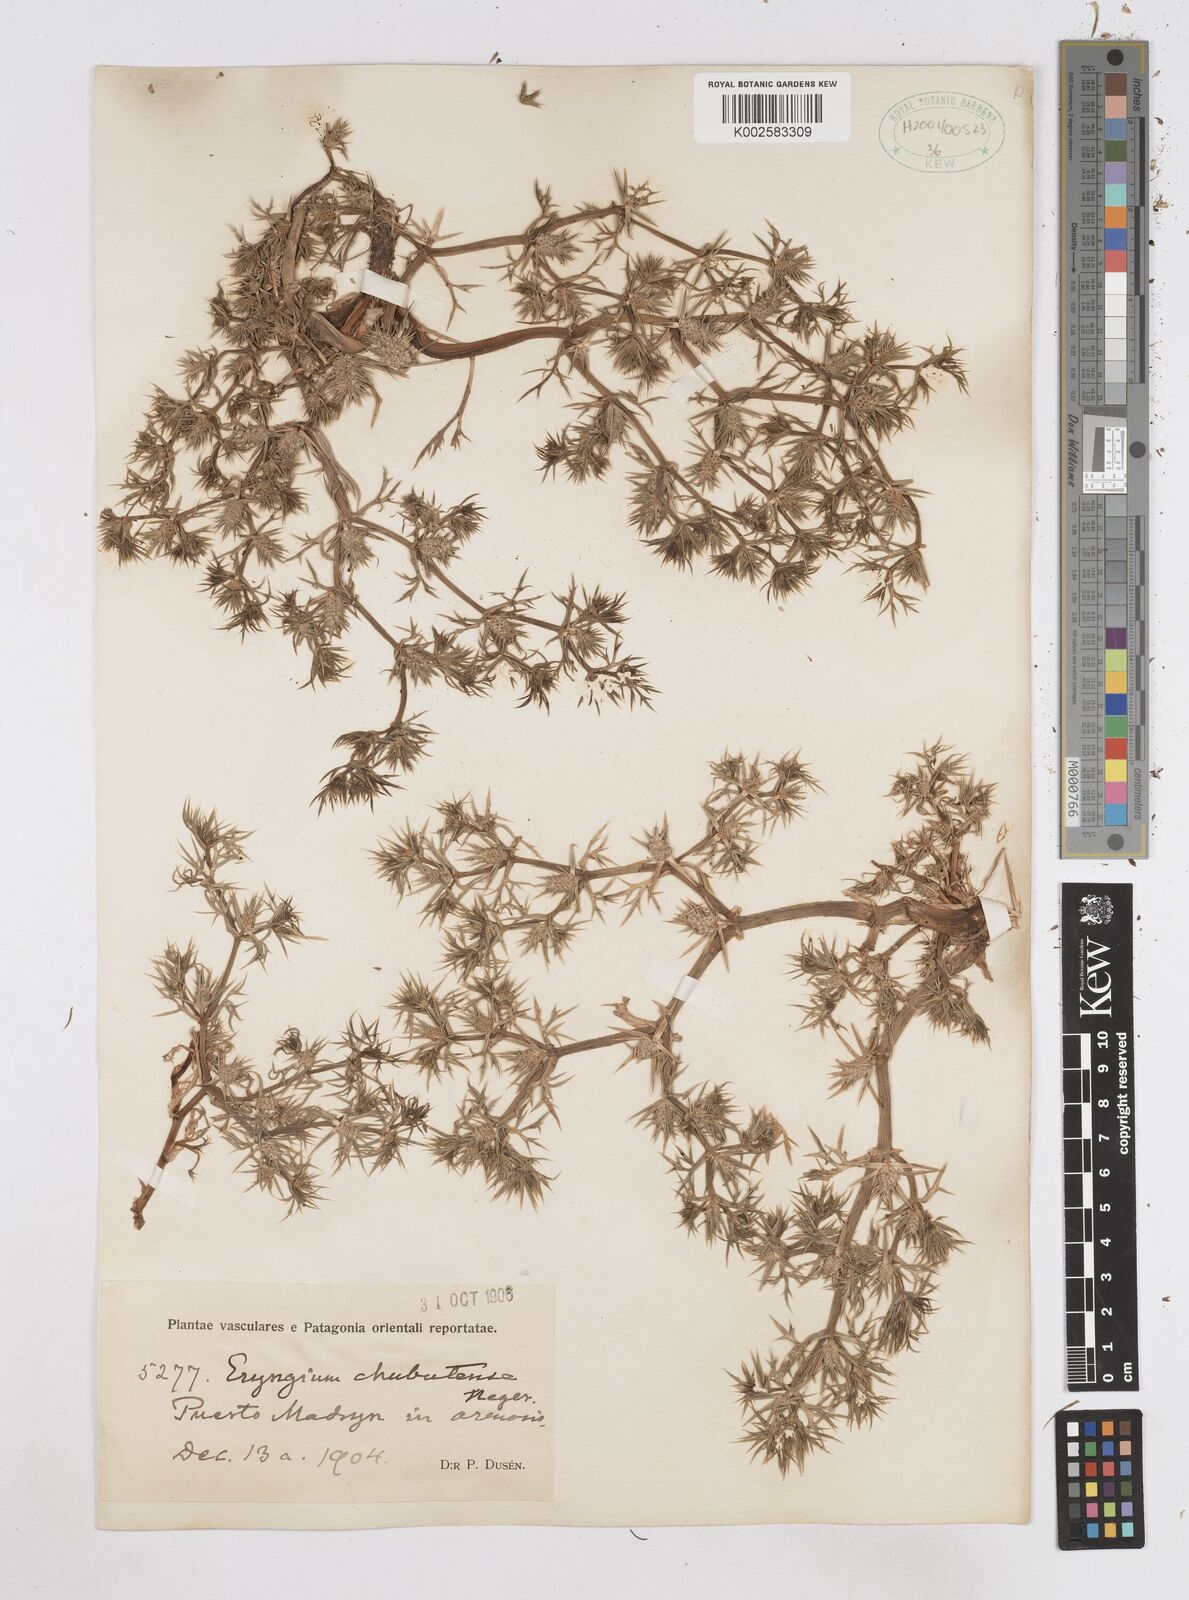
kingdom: Plantae
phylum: Tracheophyta
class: Magnoliopsida
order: Apiales
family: Apiaceae
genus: Eryngium
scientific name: Eryngium chubutense
